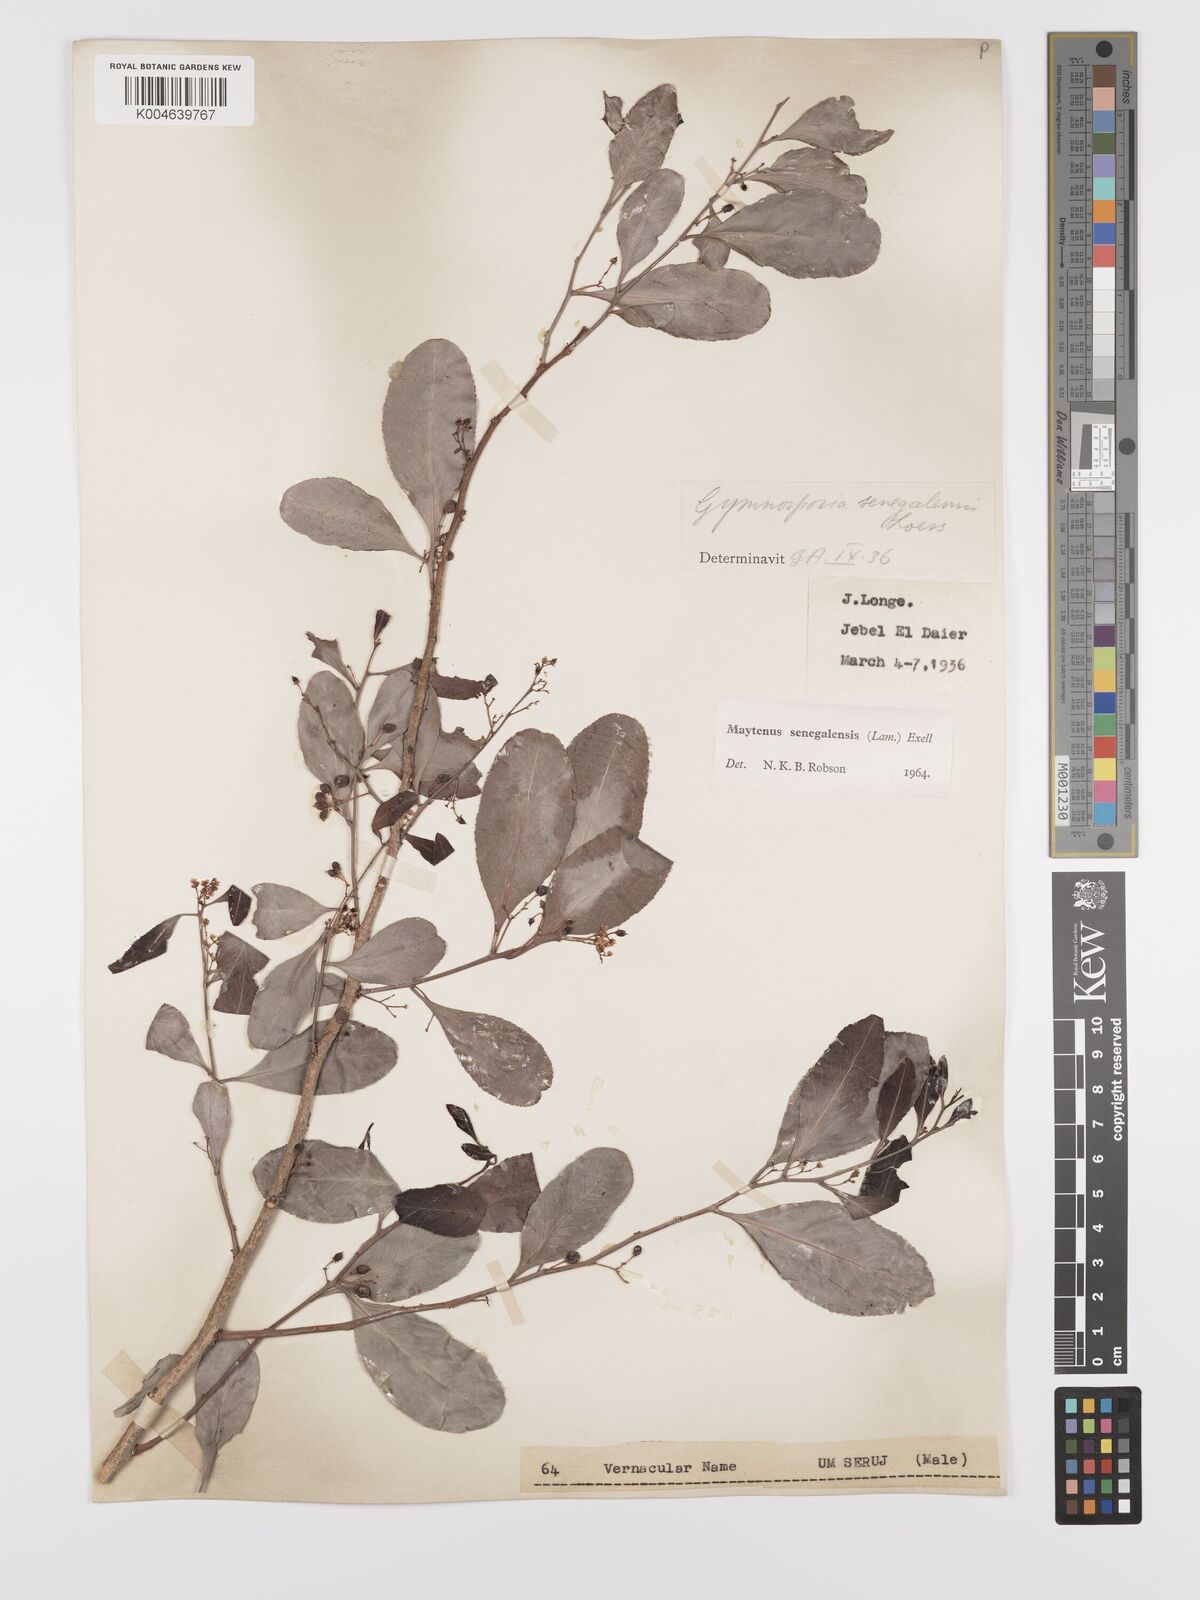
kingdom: Plantae
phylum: Tracheophyta
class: Magnoliopsida
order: Celastrales
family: Celastraceae
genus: Gymnosporia
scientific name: Gymnosporia senegalensis
